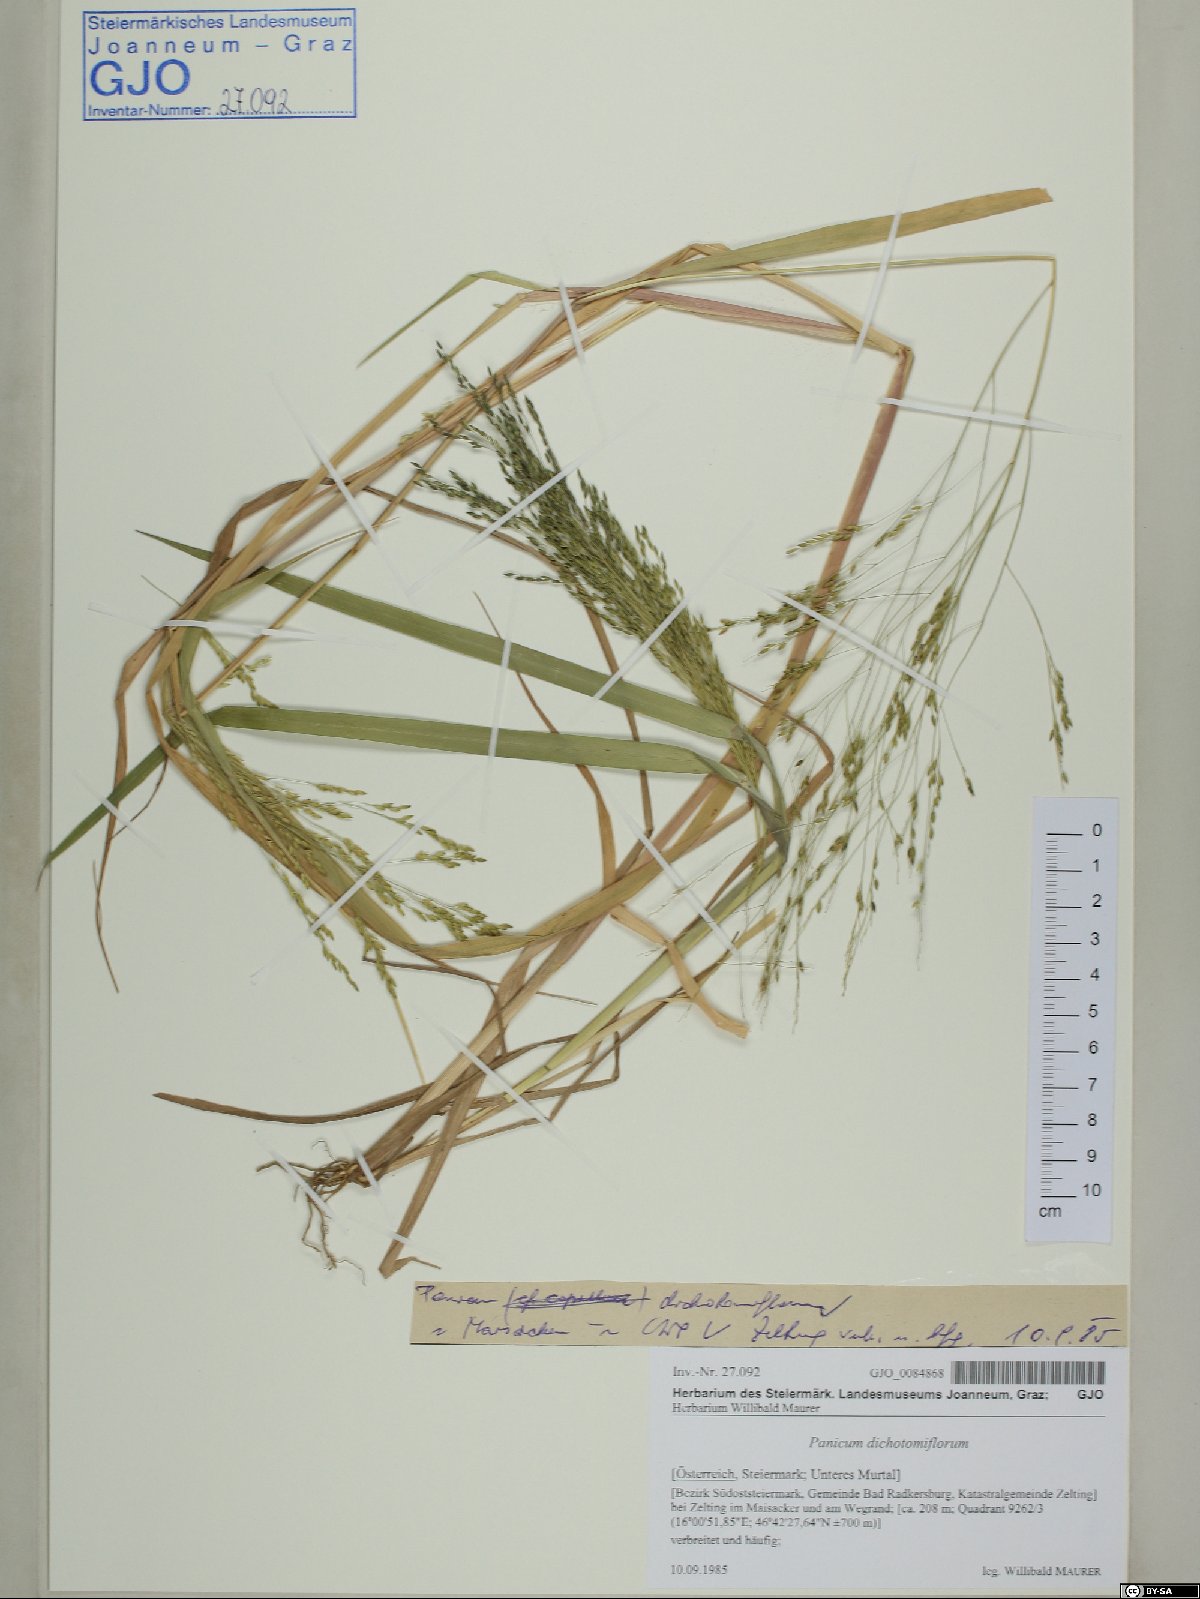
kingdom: Plantae
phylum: Tracheophyta
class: Liliopsida
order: Poales
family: Poaceae
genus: Panicum
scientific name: Panicum dichotomiflorum
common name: Autumn millet
